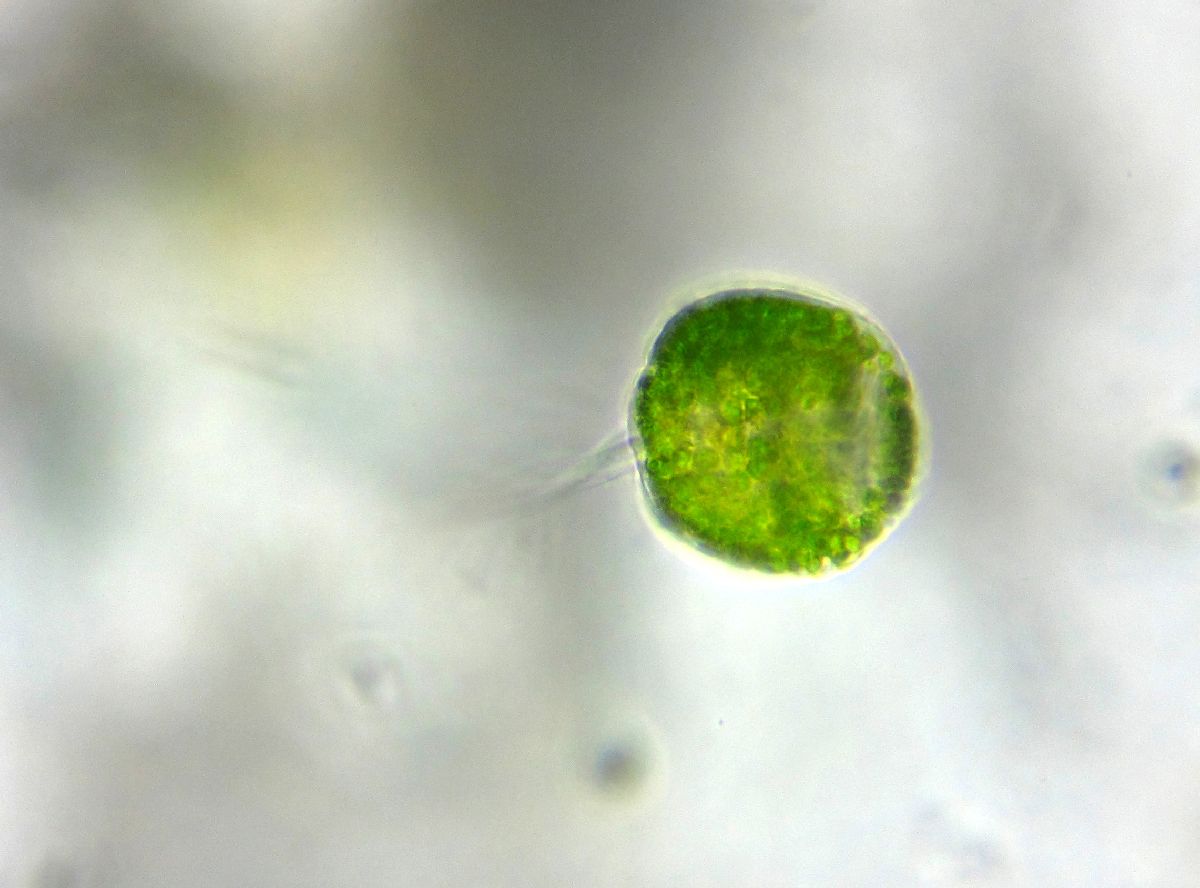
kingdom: Chromista
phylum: Ciliophora
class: Oligohymenophorea
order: Peritrichida
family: Vorticellidae
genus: Vorticella
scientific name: Vorticella chlorostigma
